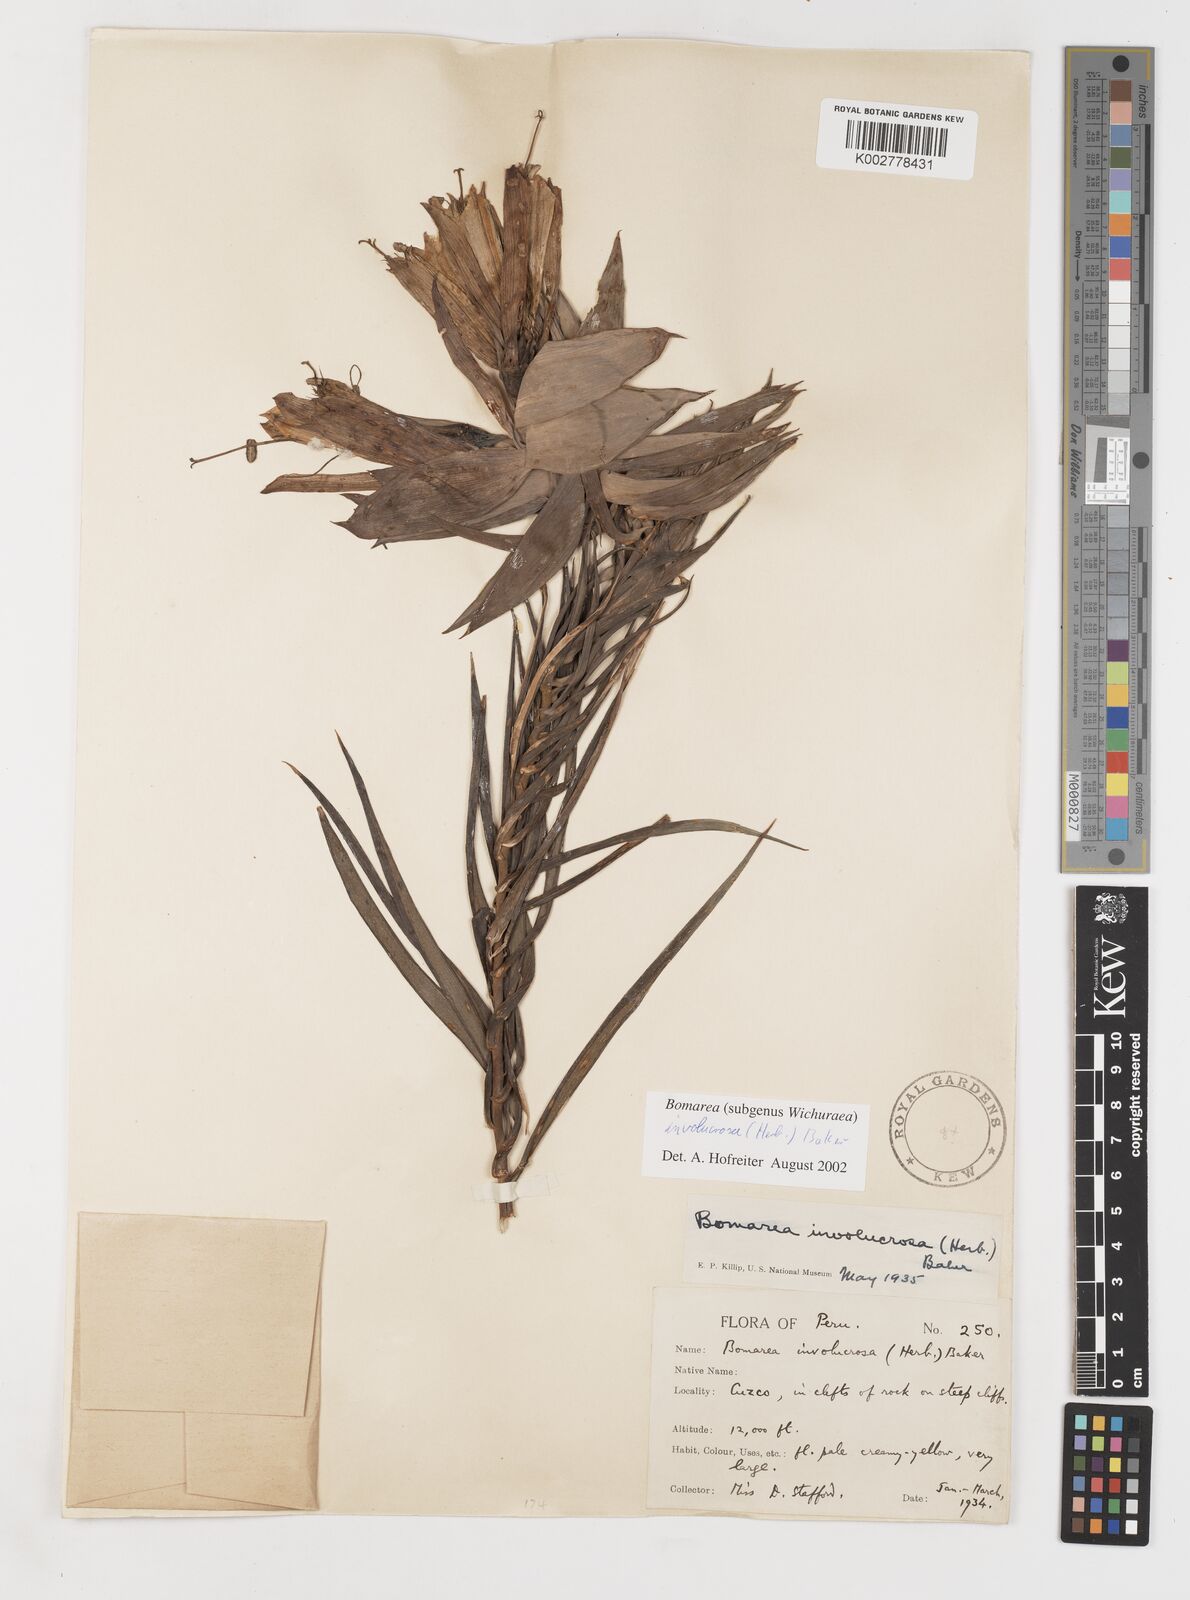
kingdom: Plantae
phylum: Tracheophyta
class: Liliopsida
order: Liliales
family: Alstroemeriaceae
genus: Bomarea
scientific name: Bomarea involucrosa
